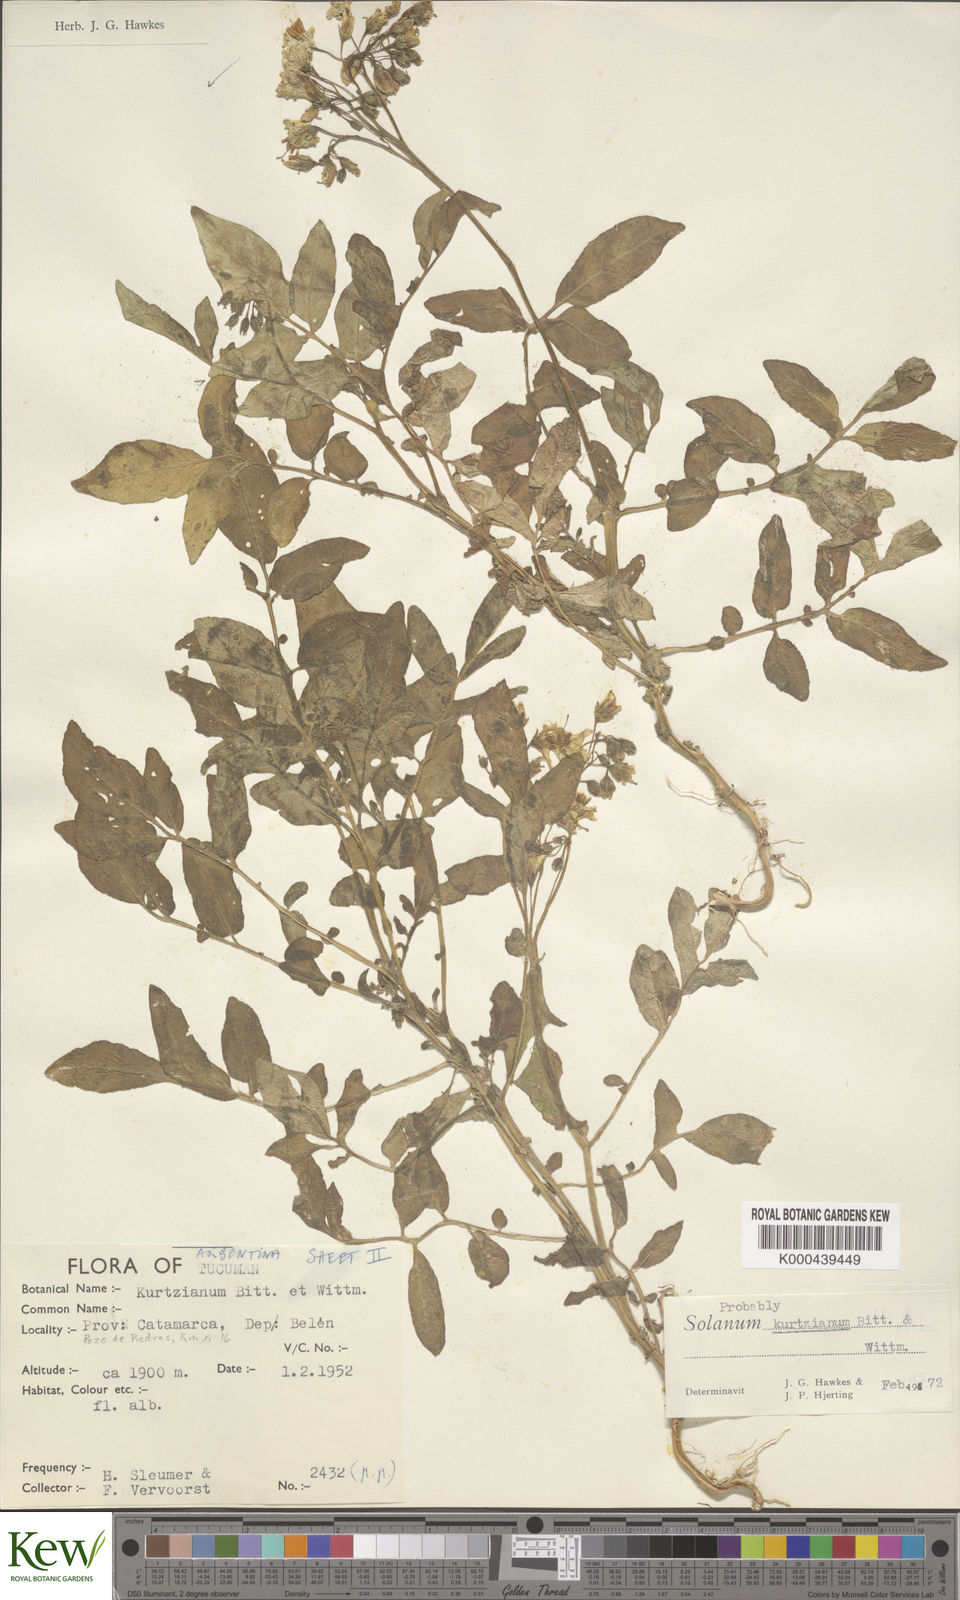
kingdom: Plantae
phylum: Tracheophyta
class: Magnoliopsida
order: Solanales
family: Solanaceae
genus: Solanum
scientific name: Solanum kurtzianum
